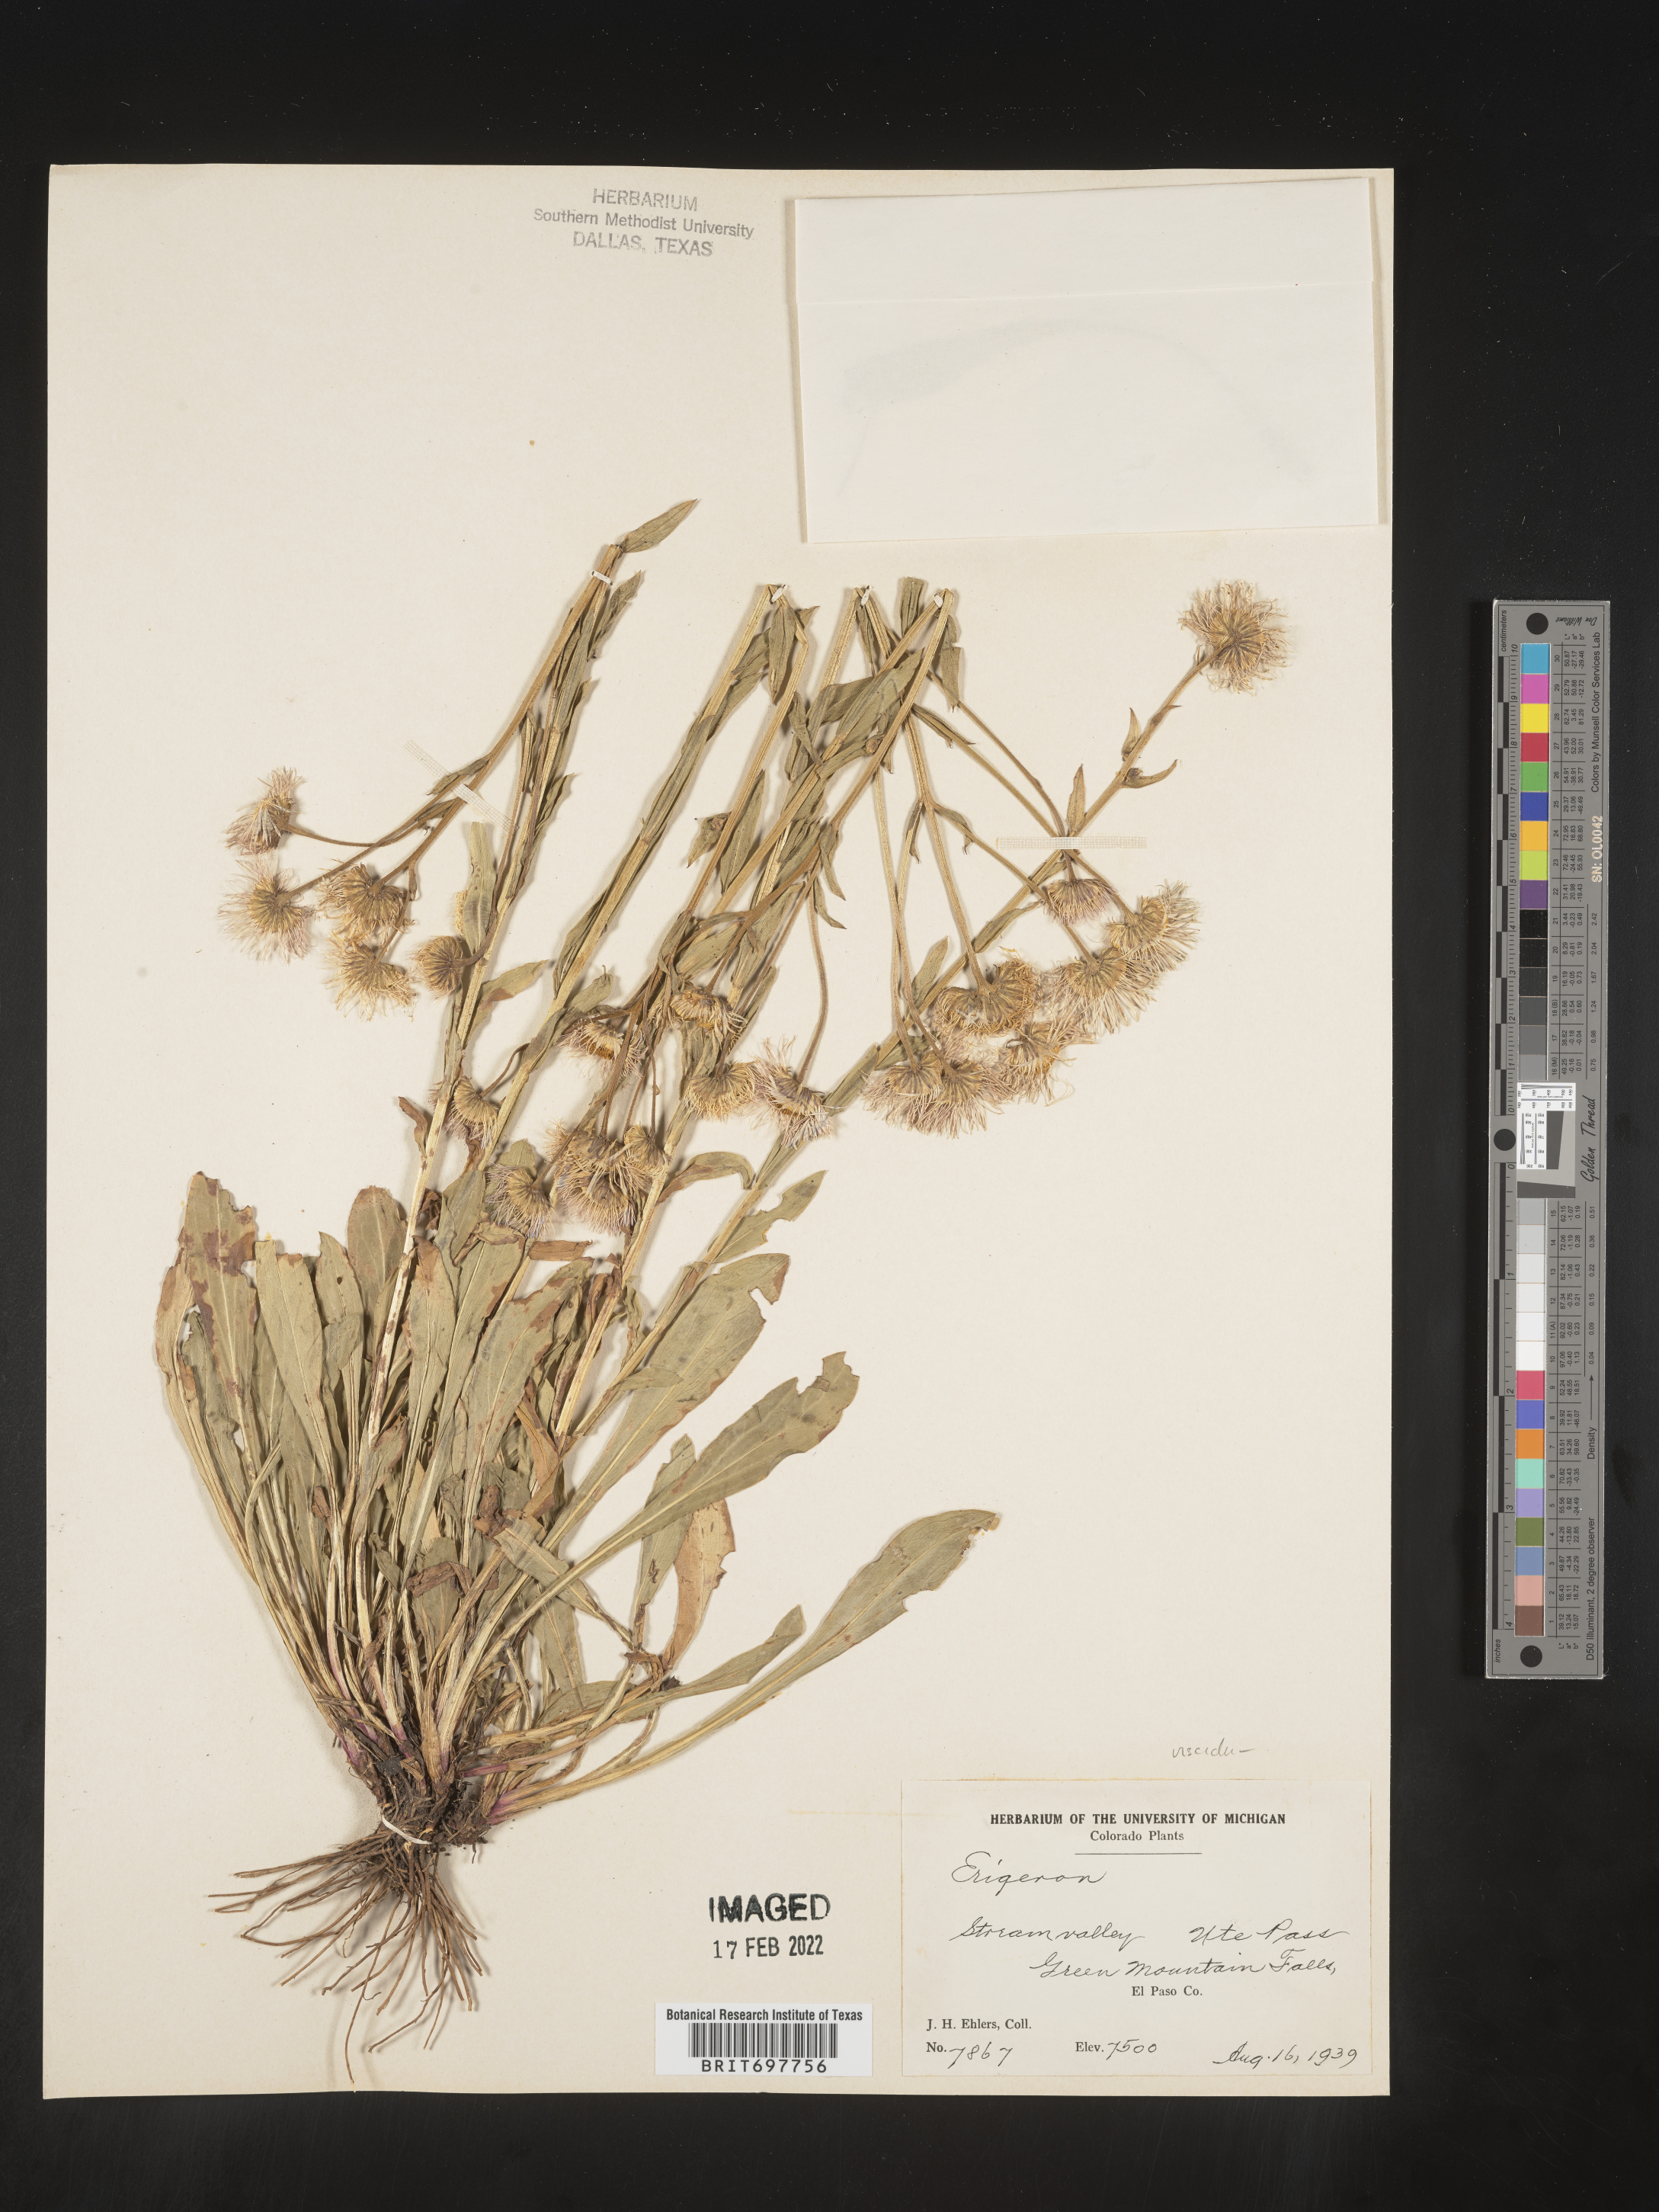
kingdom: Plantae
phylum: Tracheophyta
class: Magnoliopsida
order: Asterales
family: Asteraceae
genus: Erigeron
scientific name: Erigeron formosissimus
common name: Beautiful fleabane
